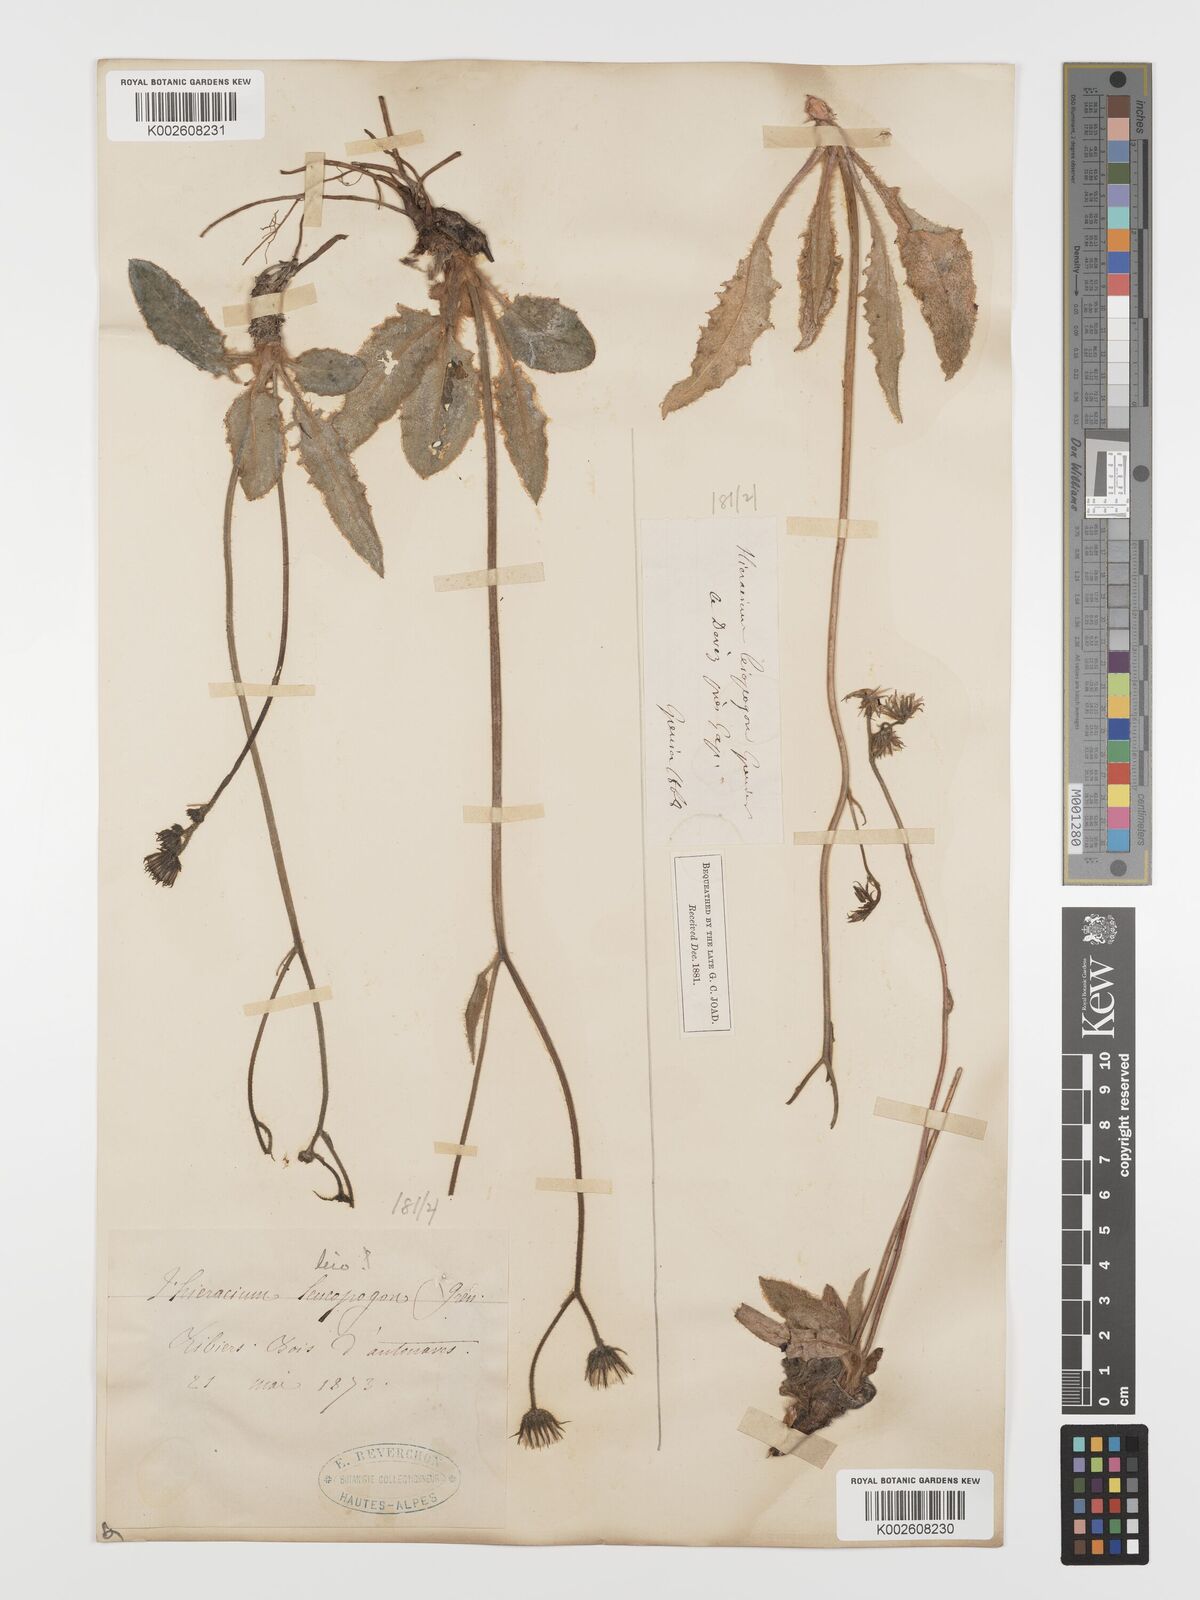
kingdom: Plantae
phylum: Tracheophyta
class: Magnoliopsida
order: Asterales
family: Asteraceae
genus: Hieracium
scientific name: Hieracium leiopogon
